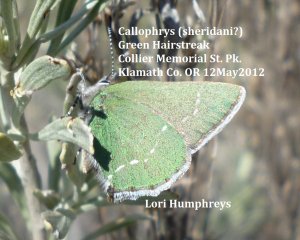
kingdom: Animalia
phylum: Arthropoda
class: Insecta
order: Lepidoptera
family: Lycaenidae
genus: Thecla
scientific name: Thecla sheridanii
